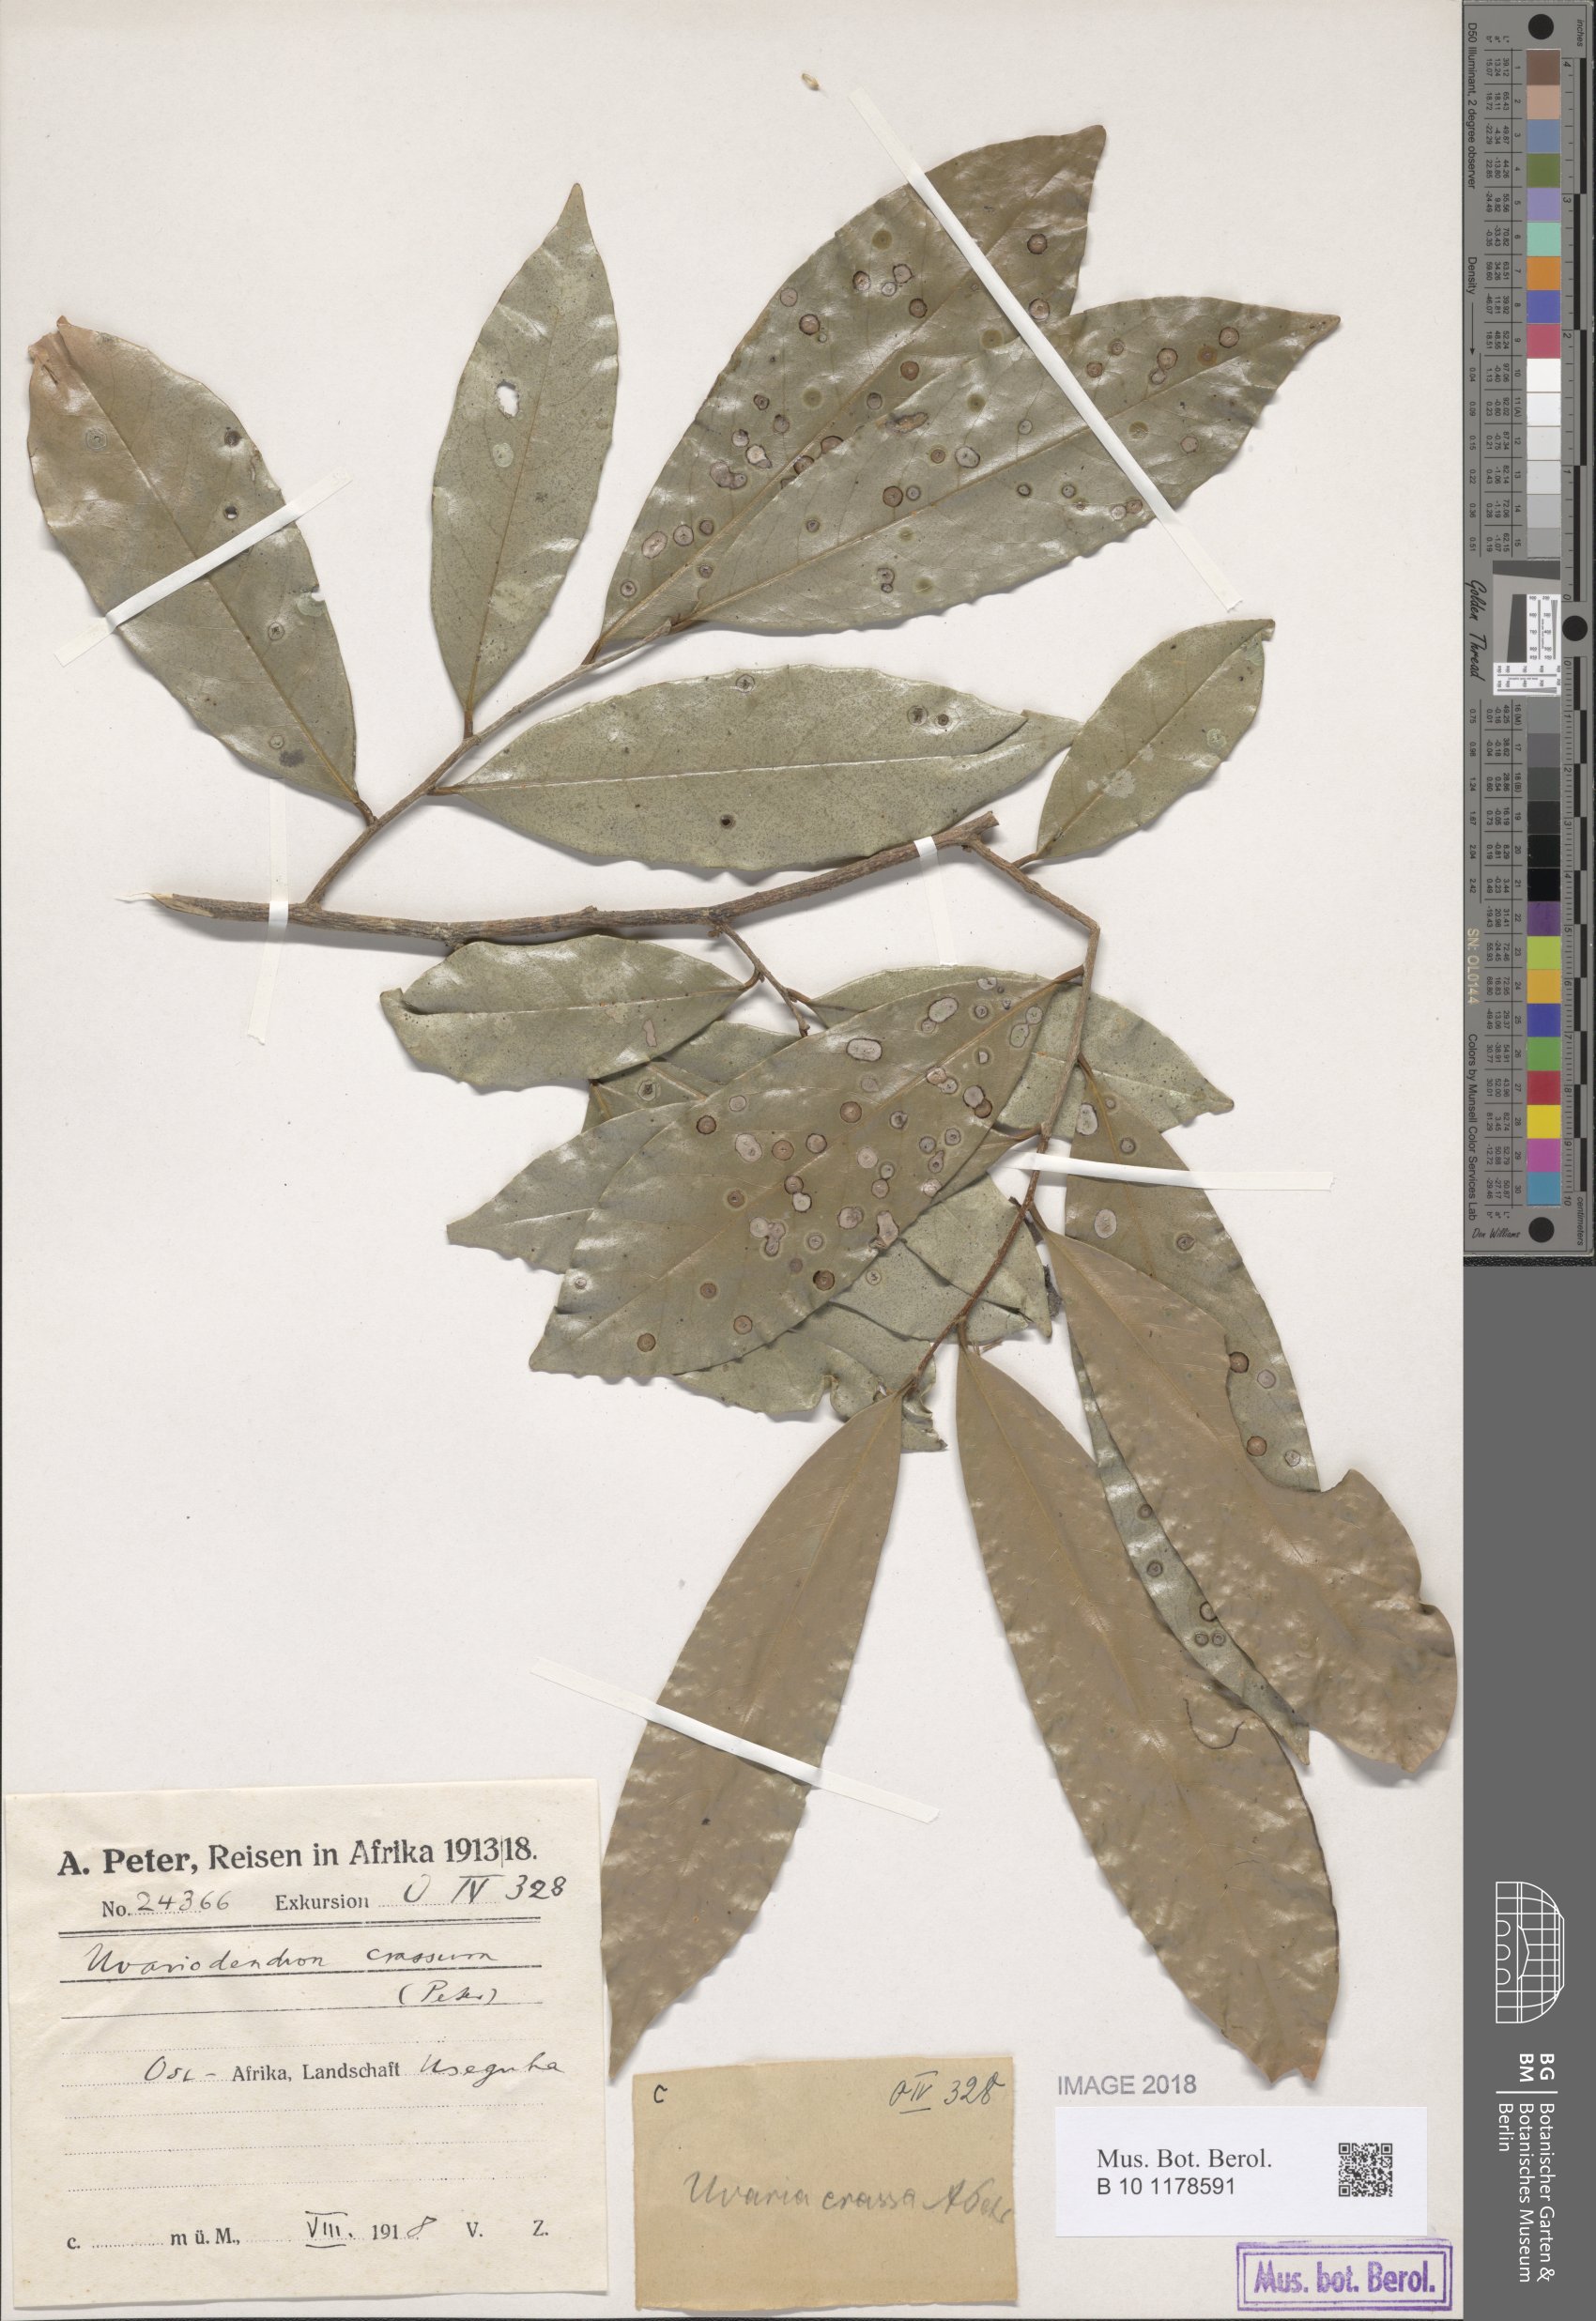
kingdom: Plantae
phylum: Tracheophyta
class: Magnoliopsida
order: Magnoliales
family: Annonaceae
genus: Uvariodendron
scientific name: Uvariodendron kirkii
